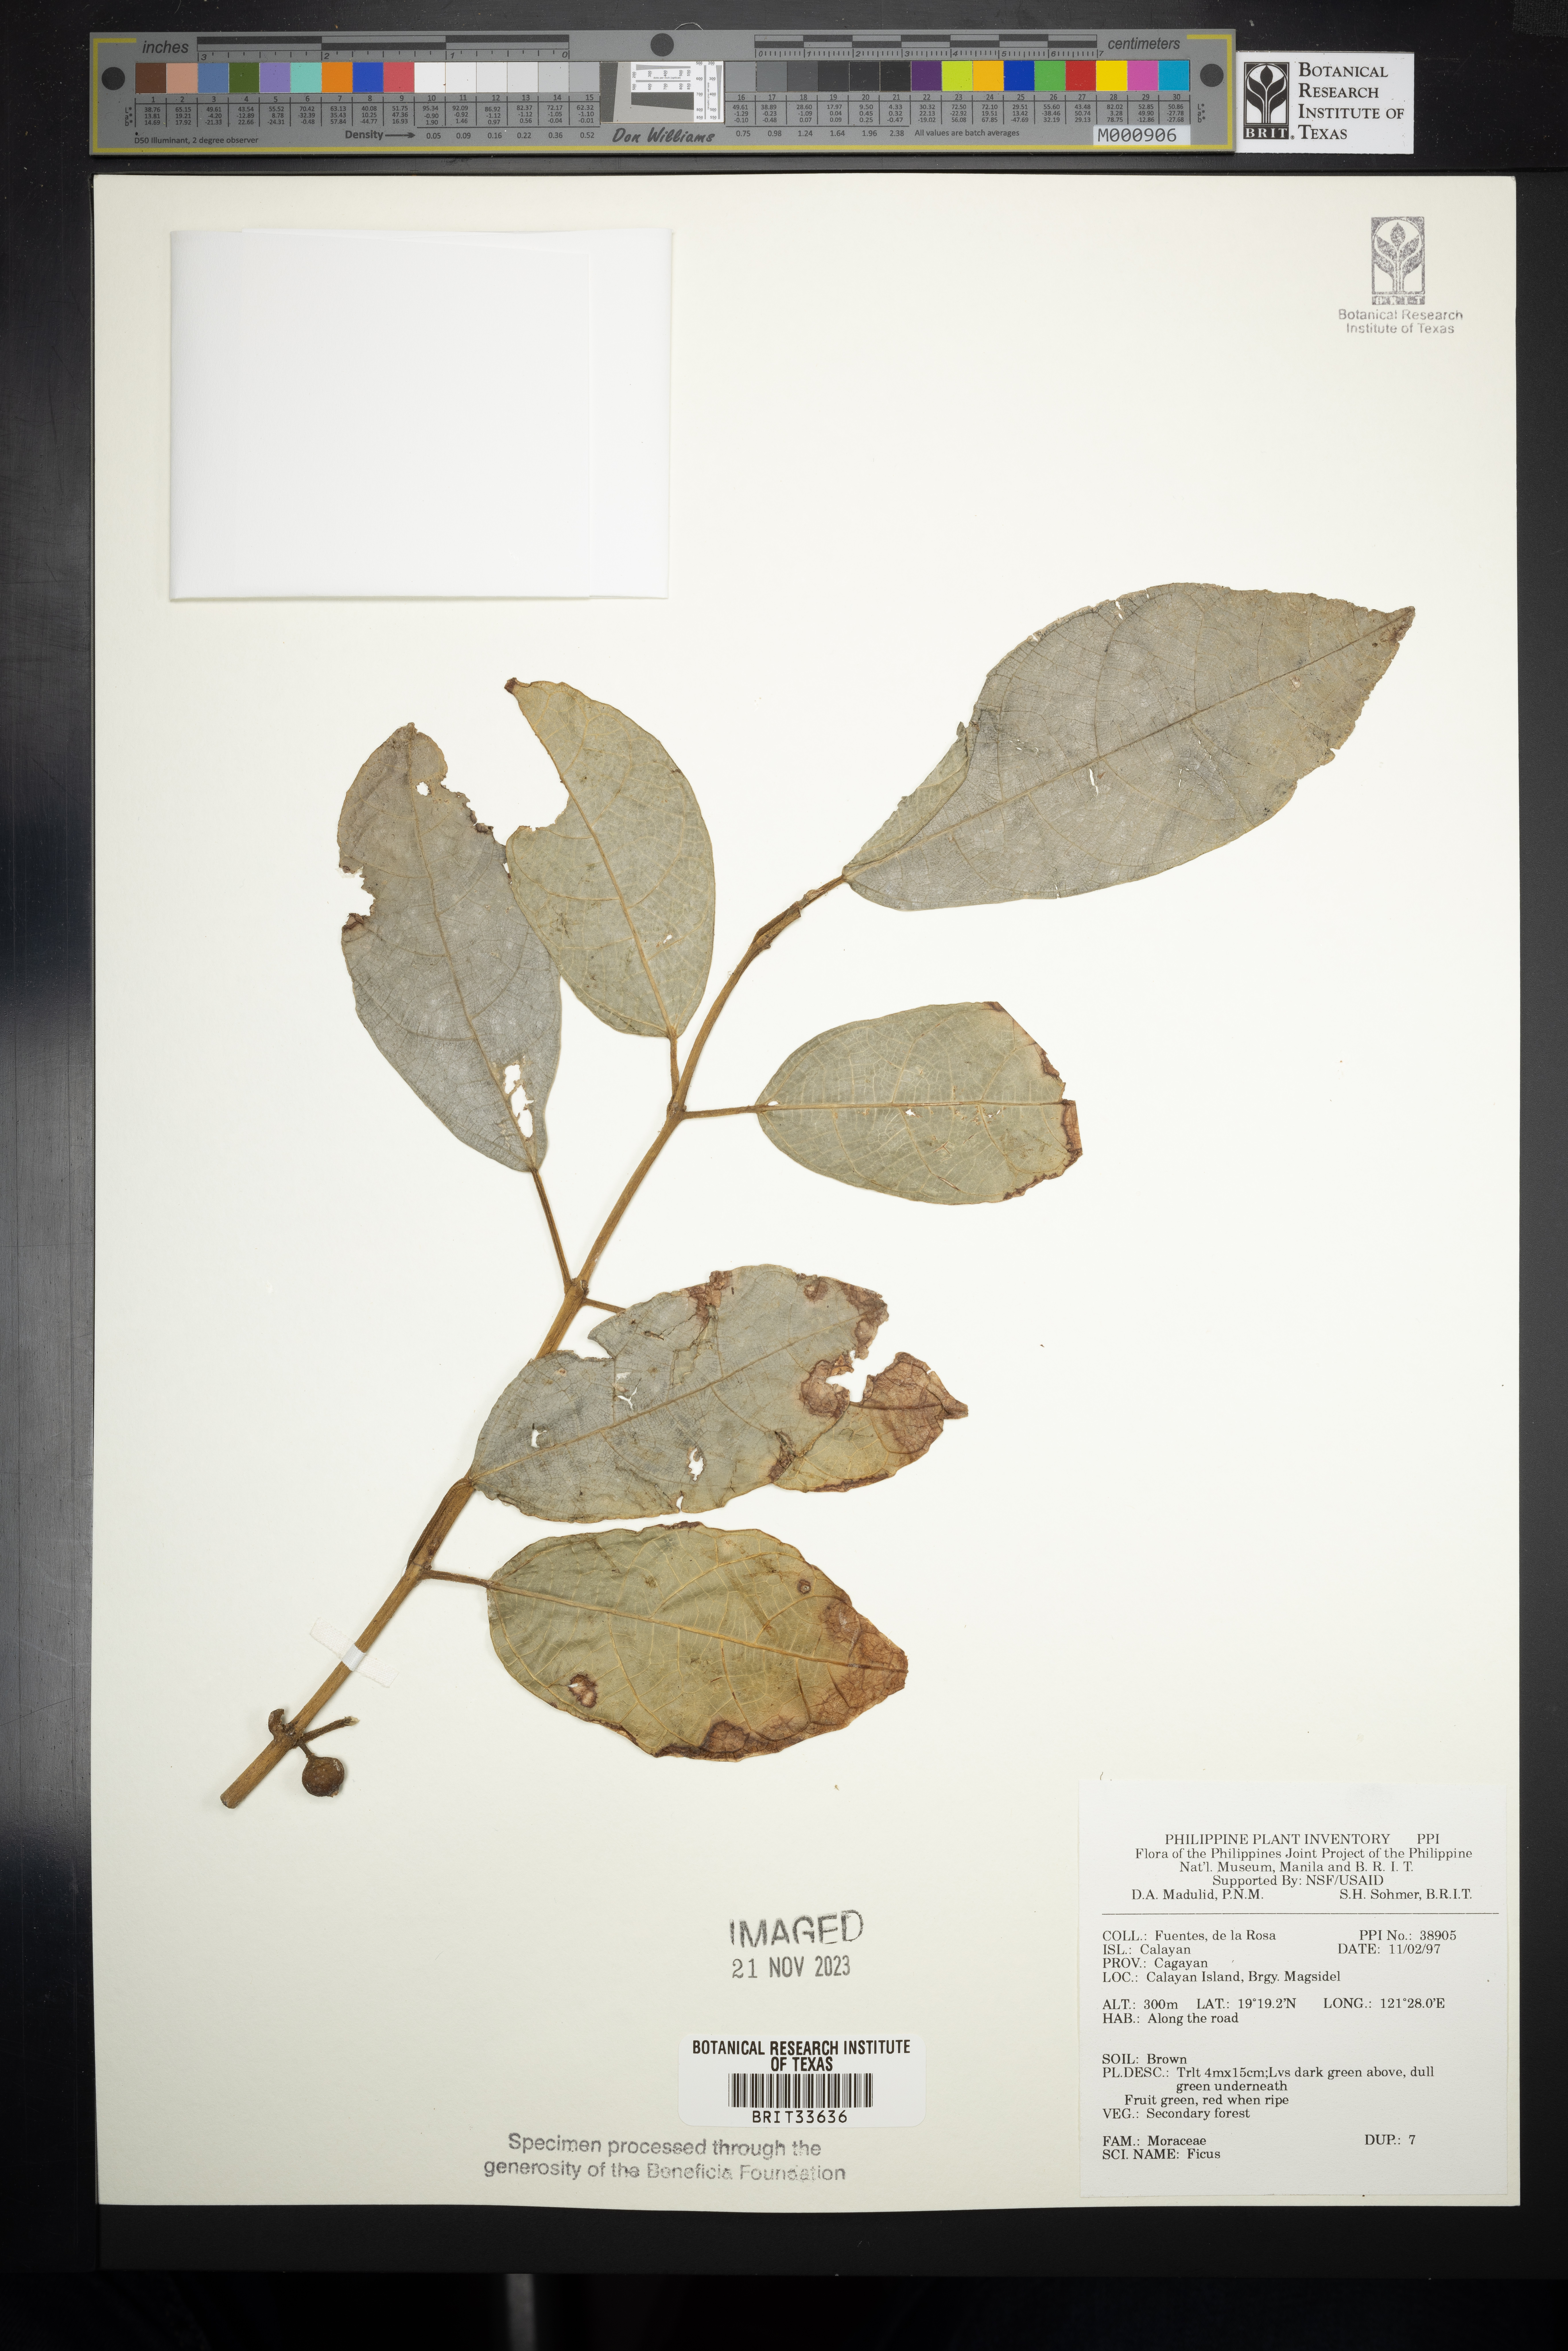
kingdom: Plantae
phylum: Tracheophyta
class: Magnoliopsida
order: Rosales
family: Moraceae
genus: Ficus
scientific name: Ficus
